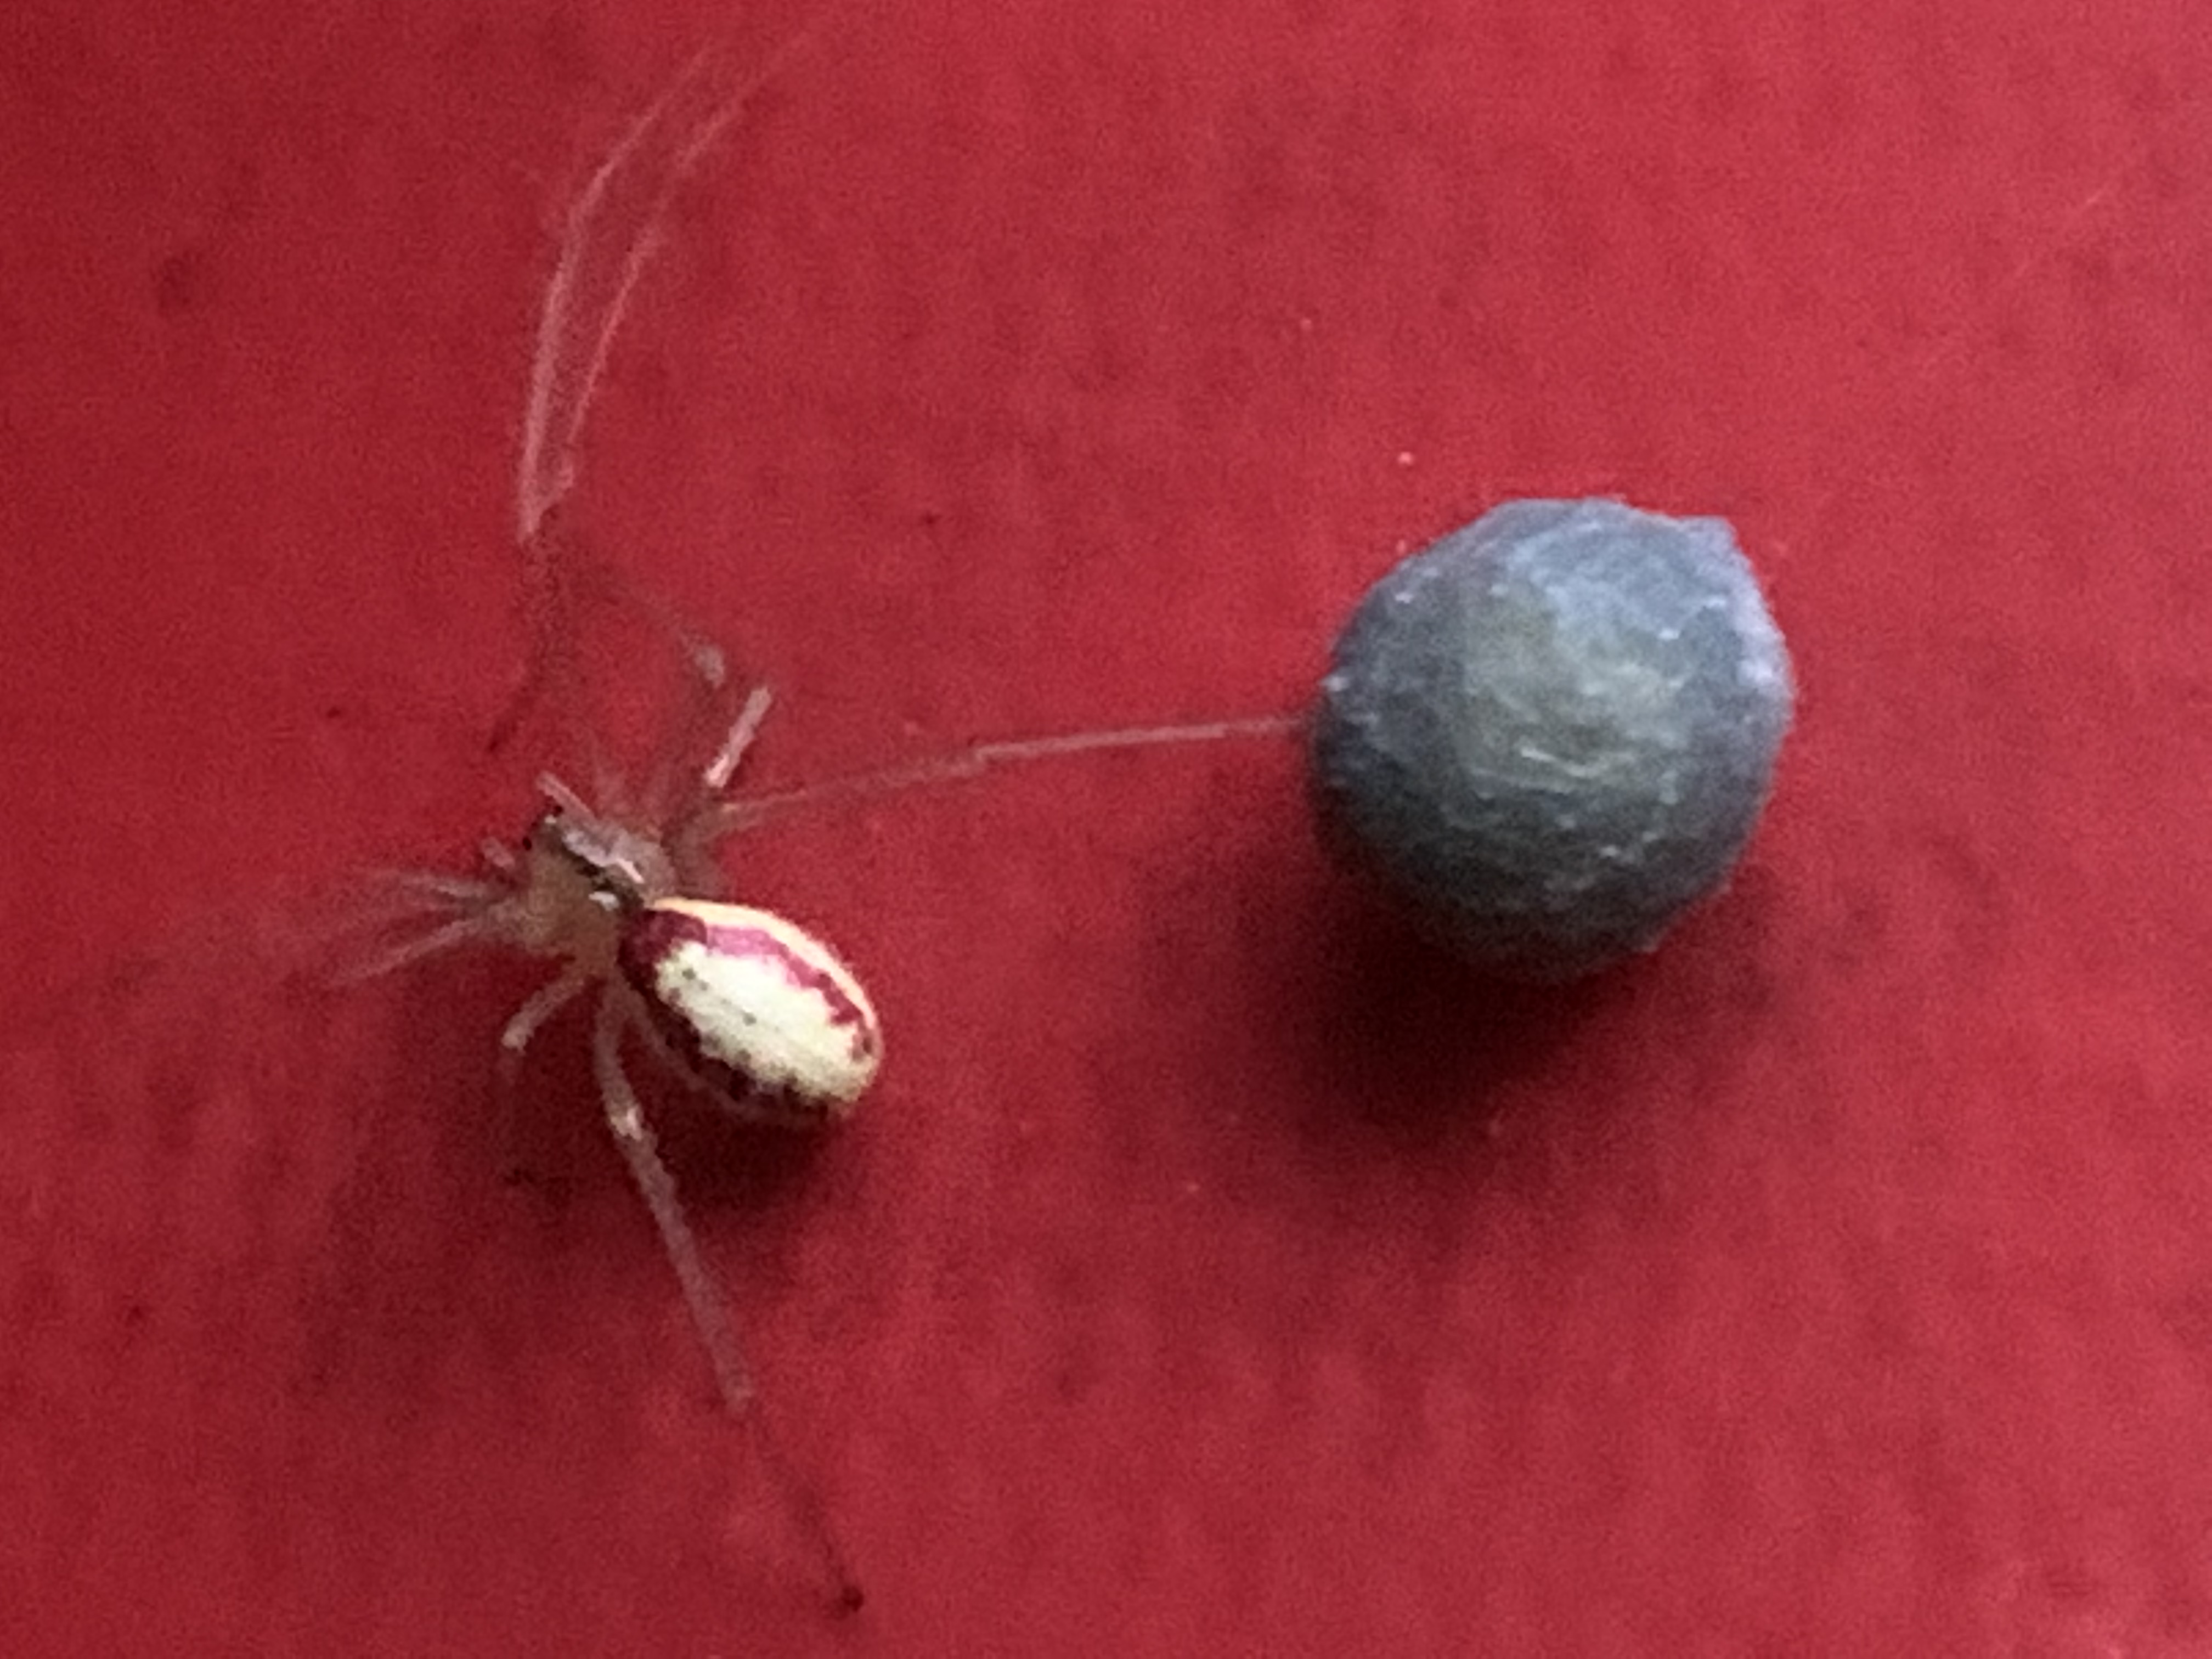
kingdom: Animalia
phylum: Arthropoda
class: Arachnida
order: Araneae
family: Theridiidae
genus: Enoplognatha
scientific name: Enoplognatha
